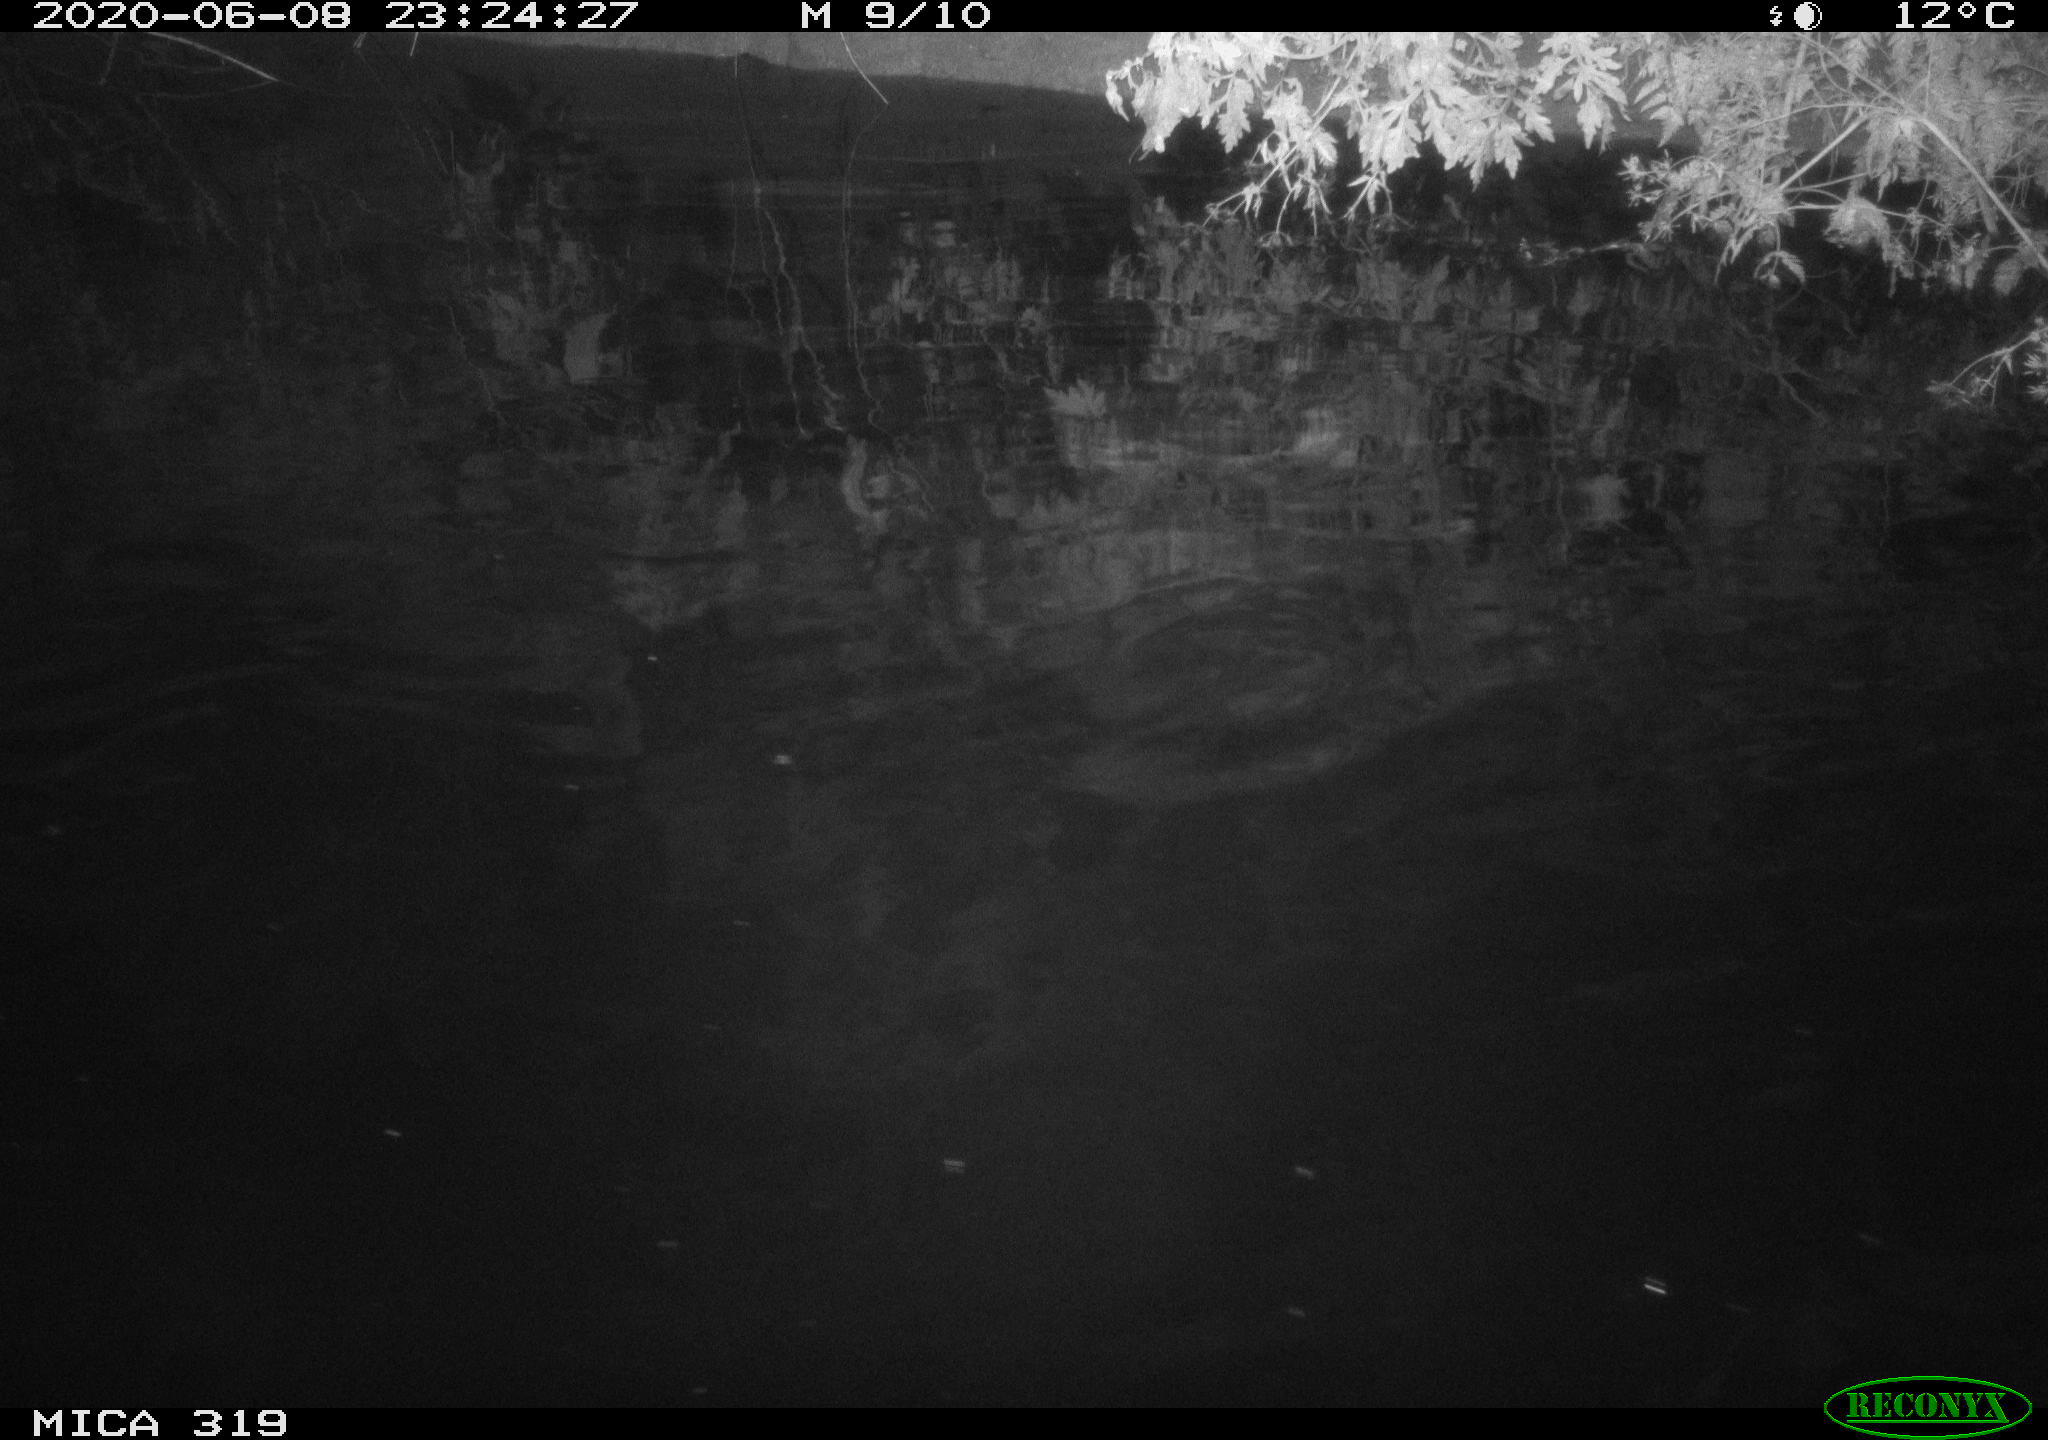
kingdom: Animalia
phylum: Chordata
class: Aves
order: Anseriformes
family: Anatidae
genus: Anas
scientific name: Anas platyrhynchos
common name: Mallard
